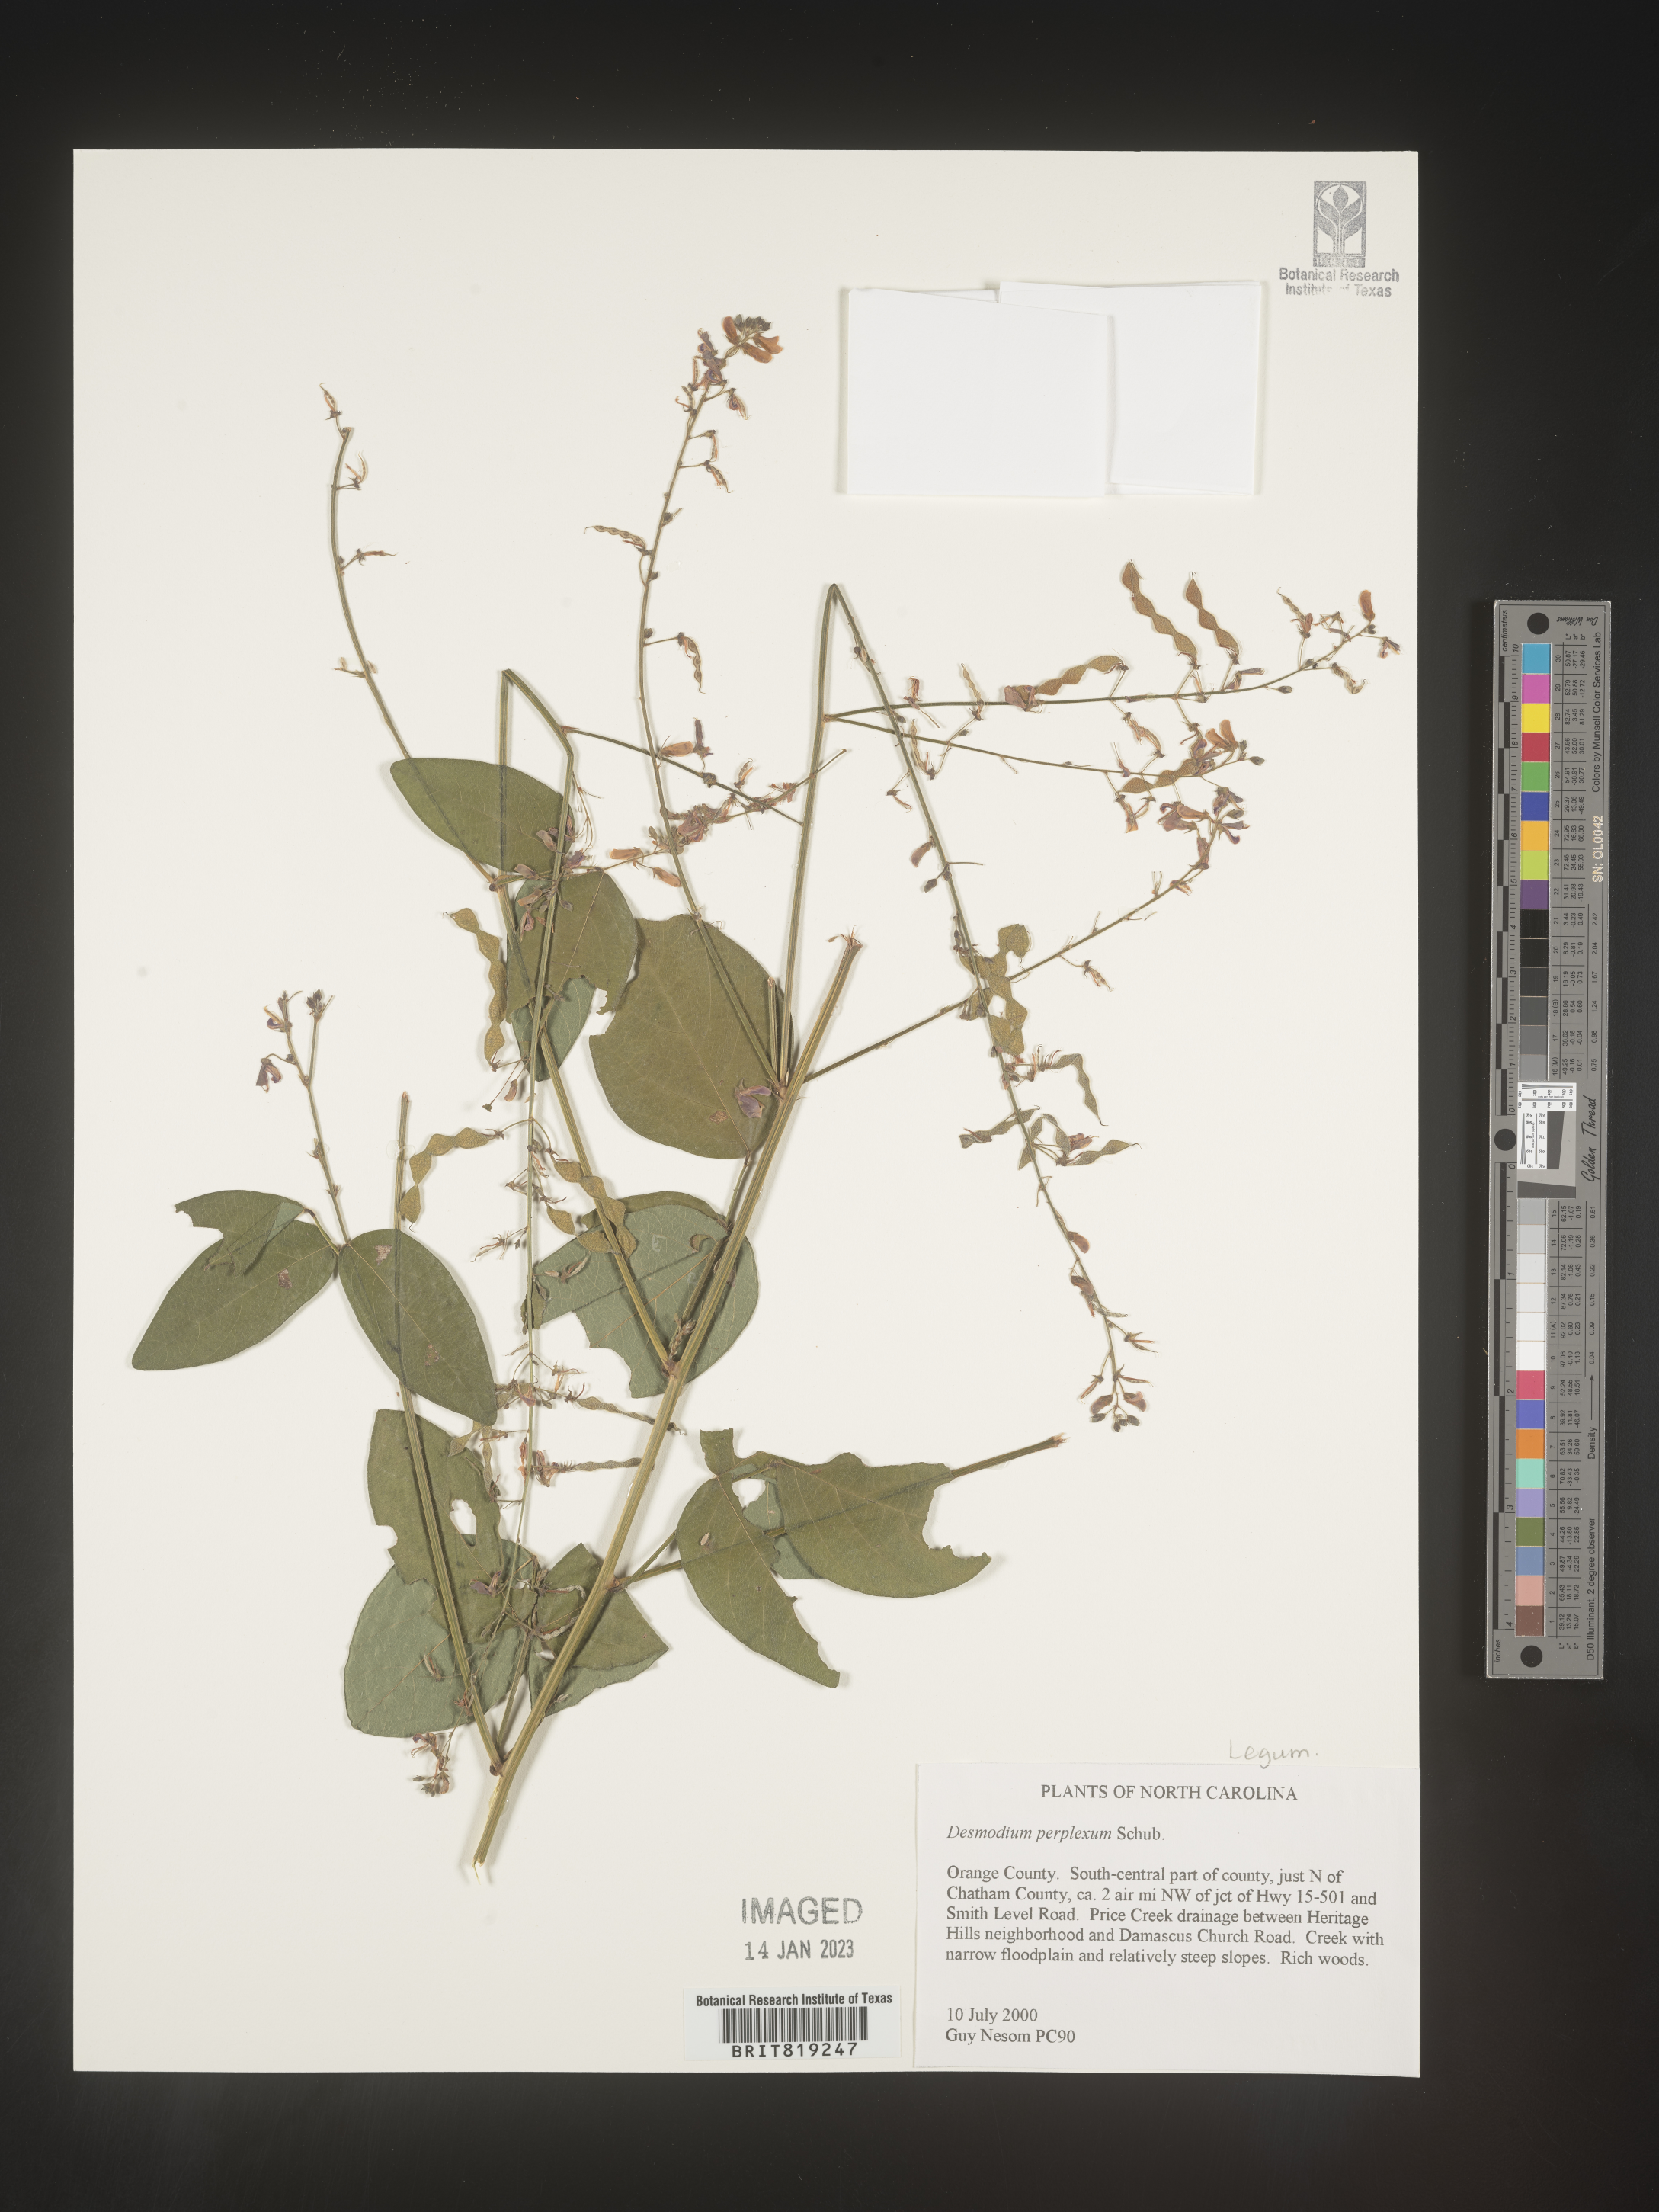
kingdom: Plantae
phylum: Tracheophyta
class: Magnoliopsida
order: Fabales
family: Fabaceae
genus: Desmodium
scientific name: Desmodium perplexum
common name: Perplexed tick trefoil
